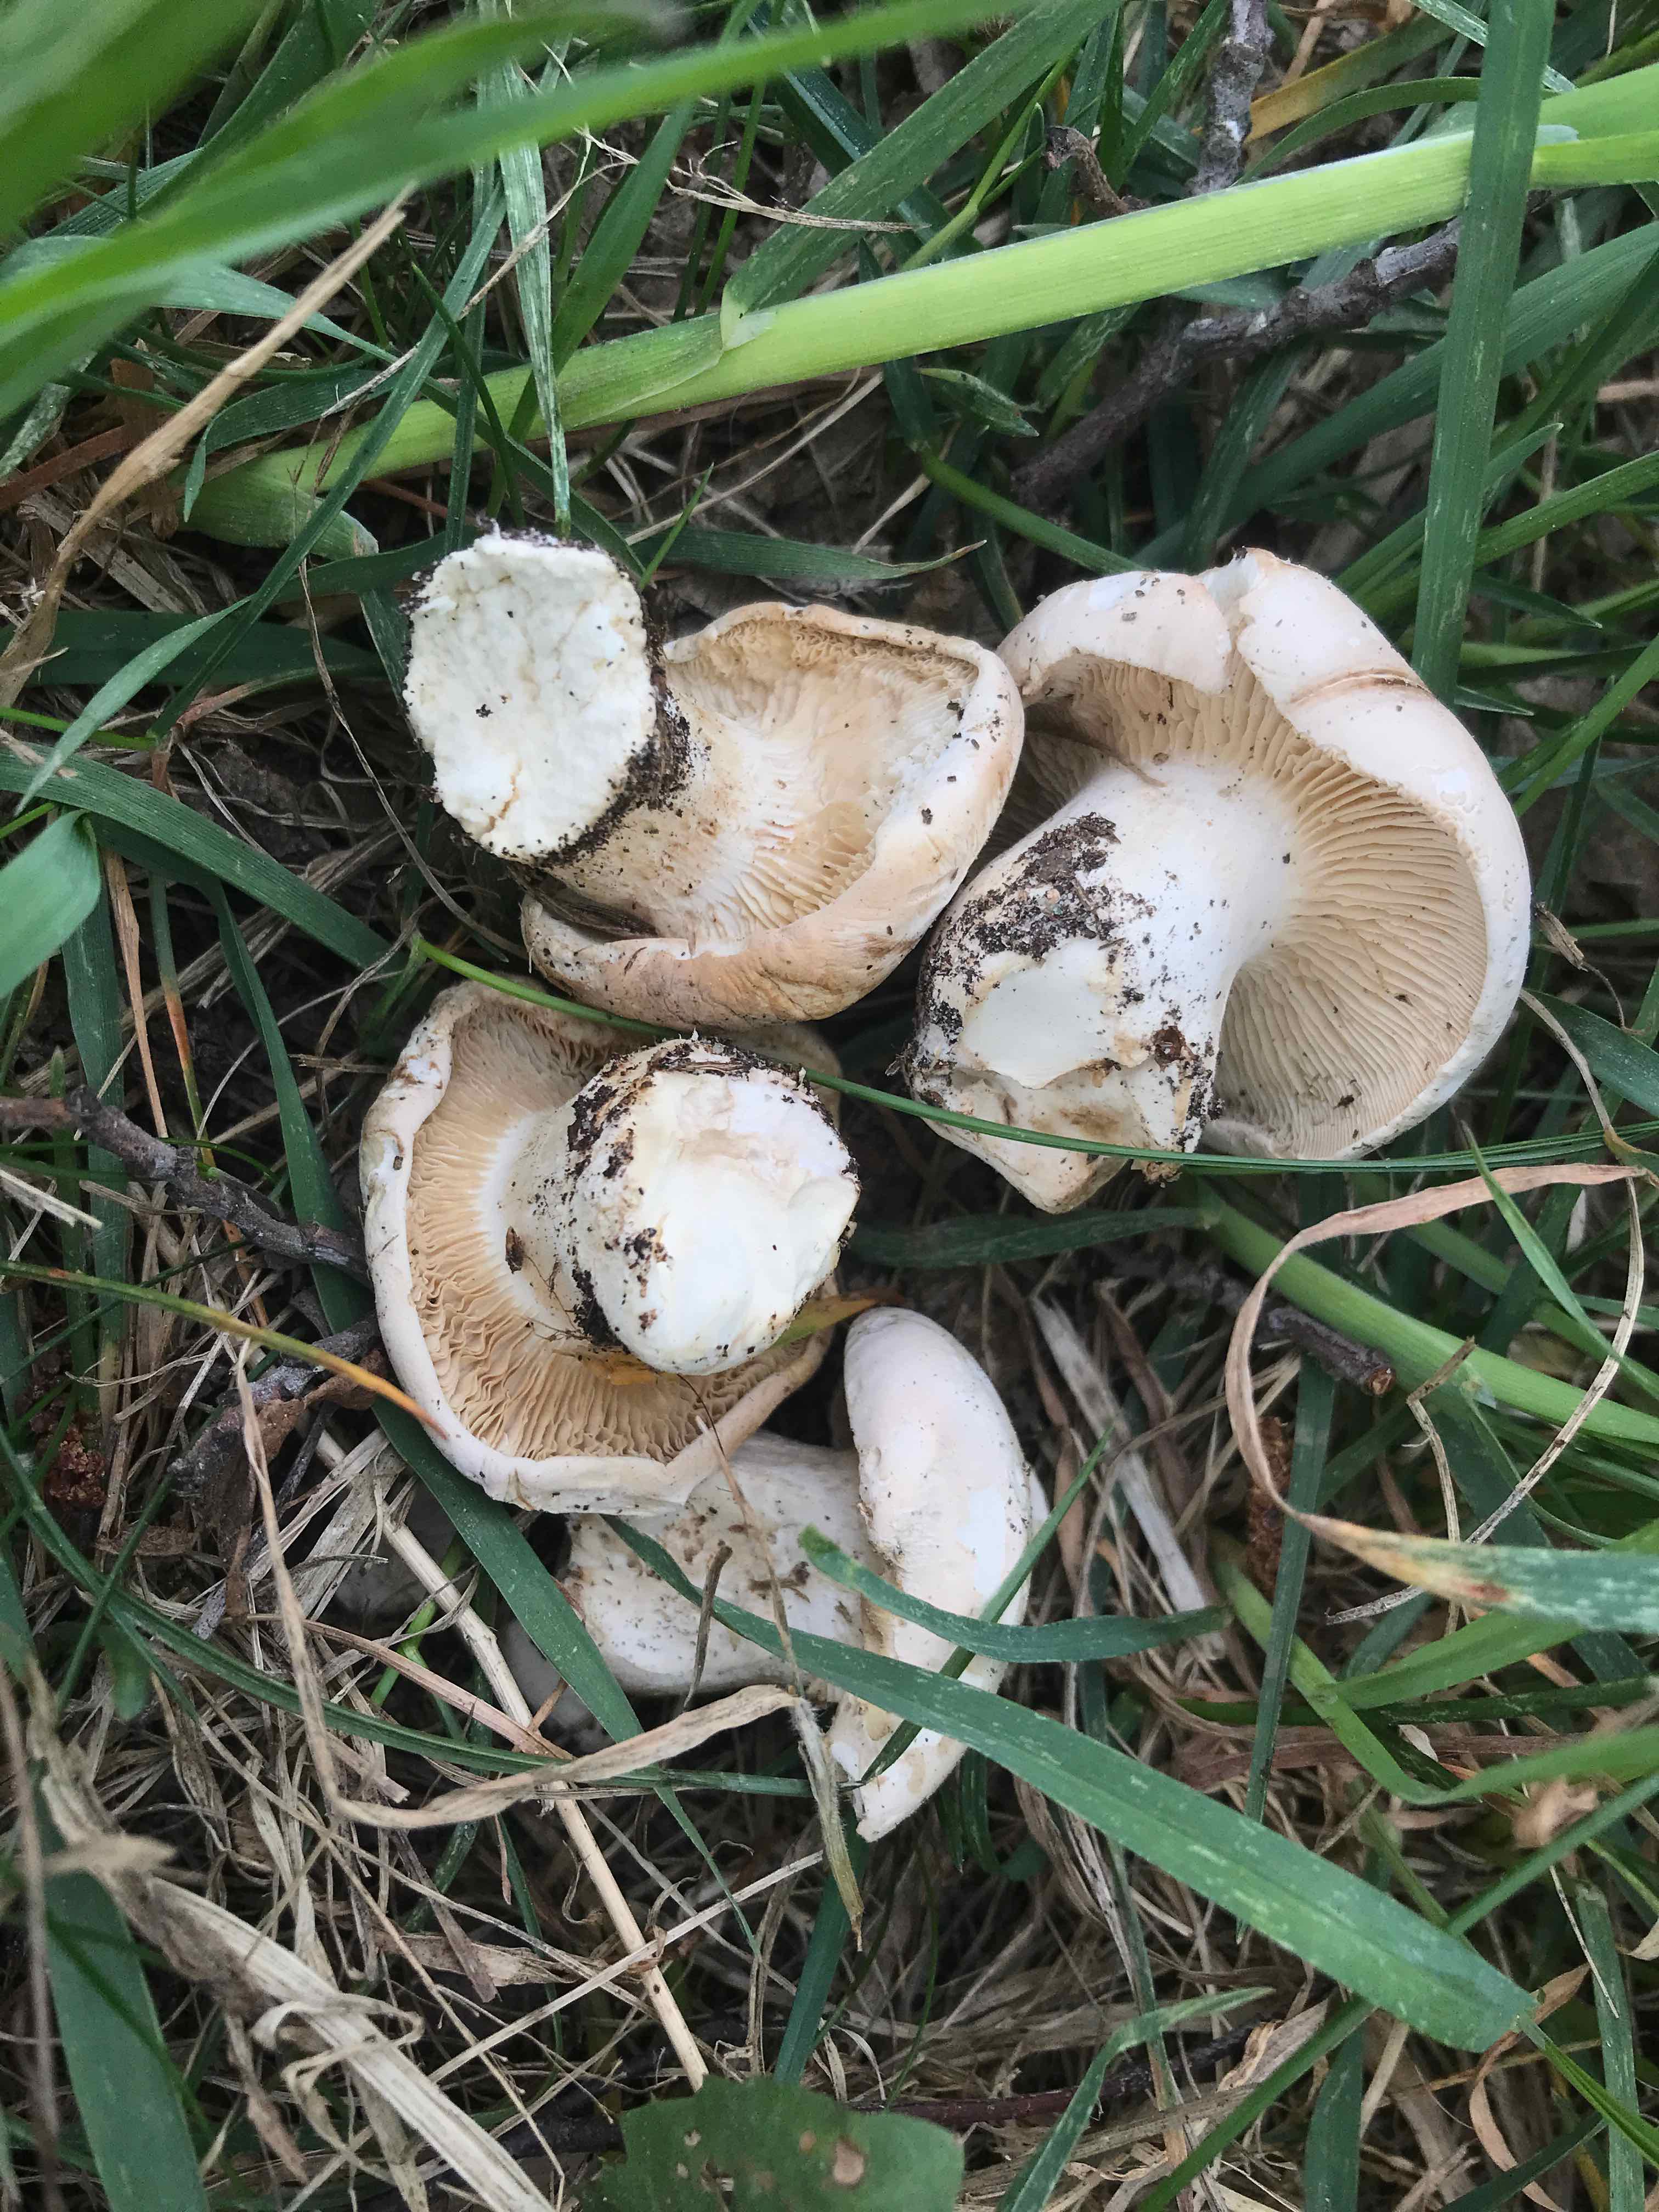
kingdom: Fungi
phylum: Basidiomycota
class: Agaricomycetes
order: Agaricales
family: Lyophyllaceae
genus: Calocybe
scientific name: Calocybe gambosa
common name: vårmusseron
